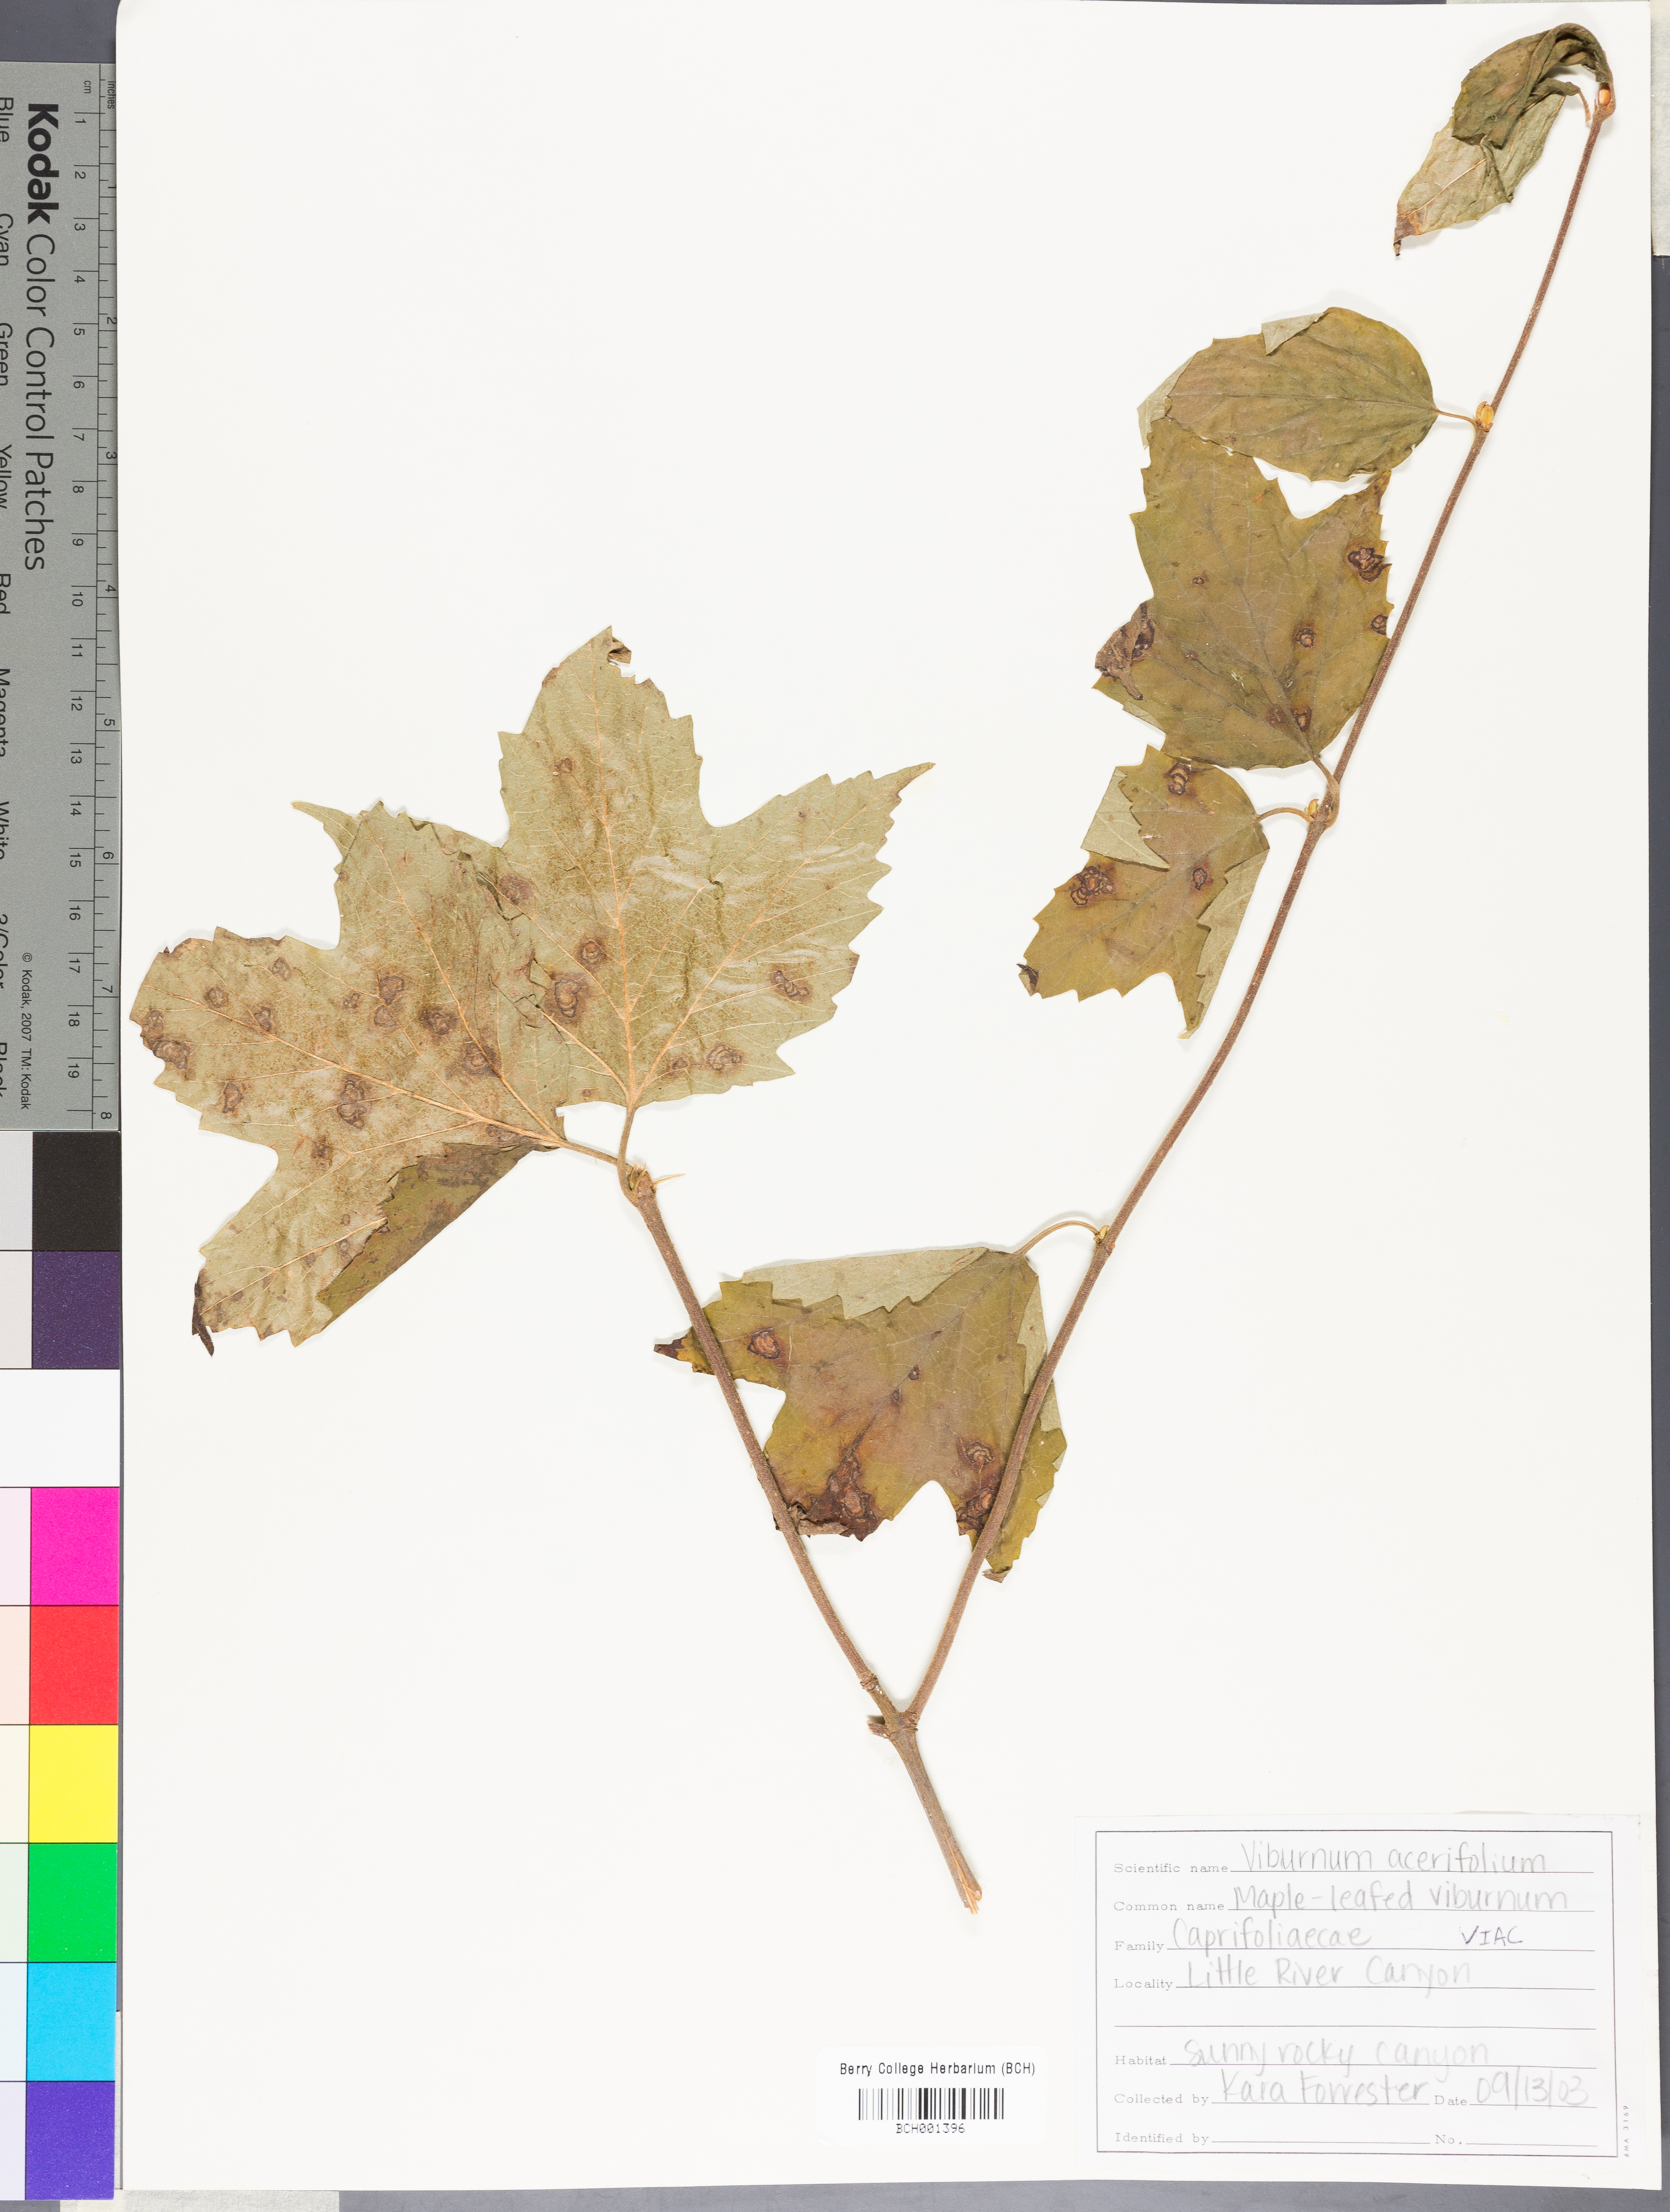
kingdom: Plantae
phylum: Tracheophyta
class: Magnoliopsida
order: Dipsacales
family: Viburnaceae
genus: Viburnum
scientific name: Viburnum acerifolium
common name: Dockmackie
